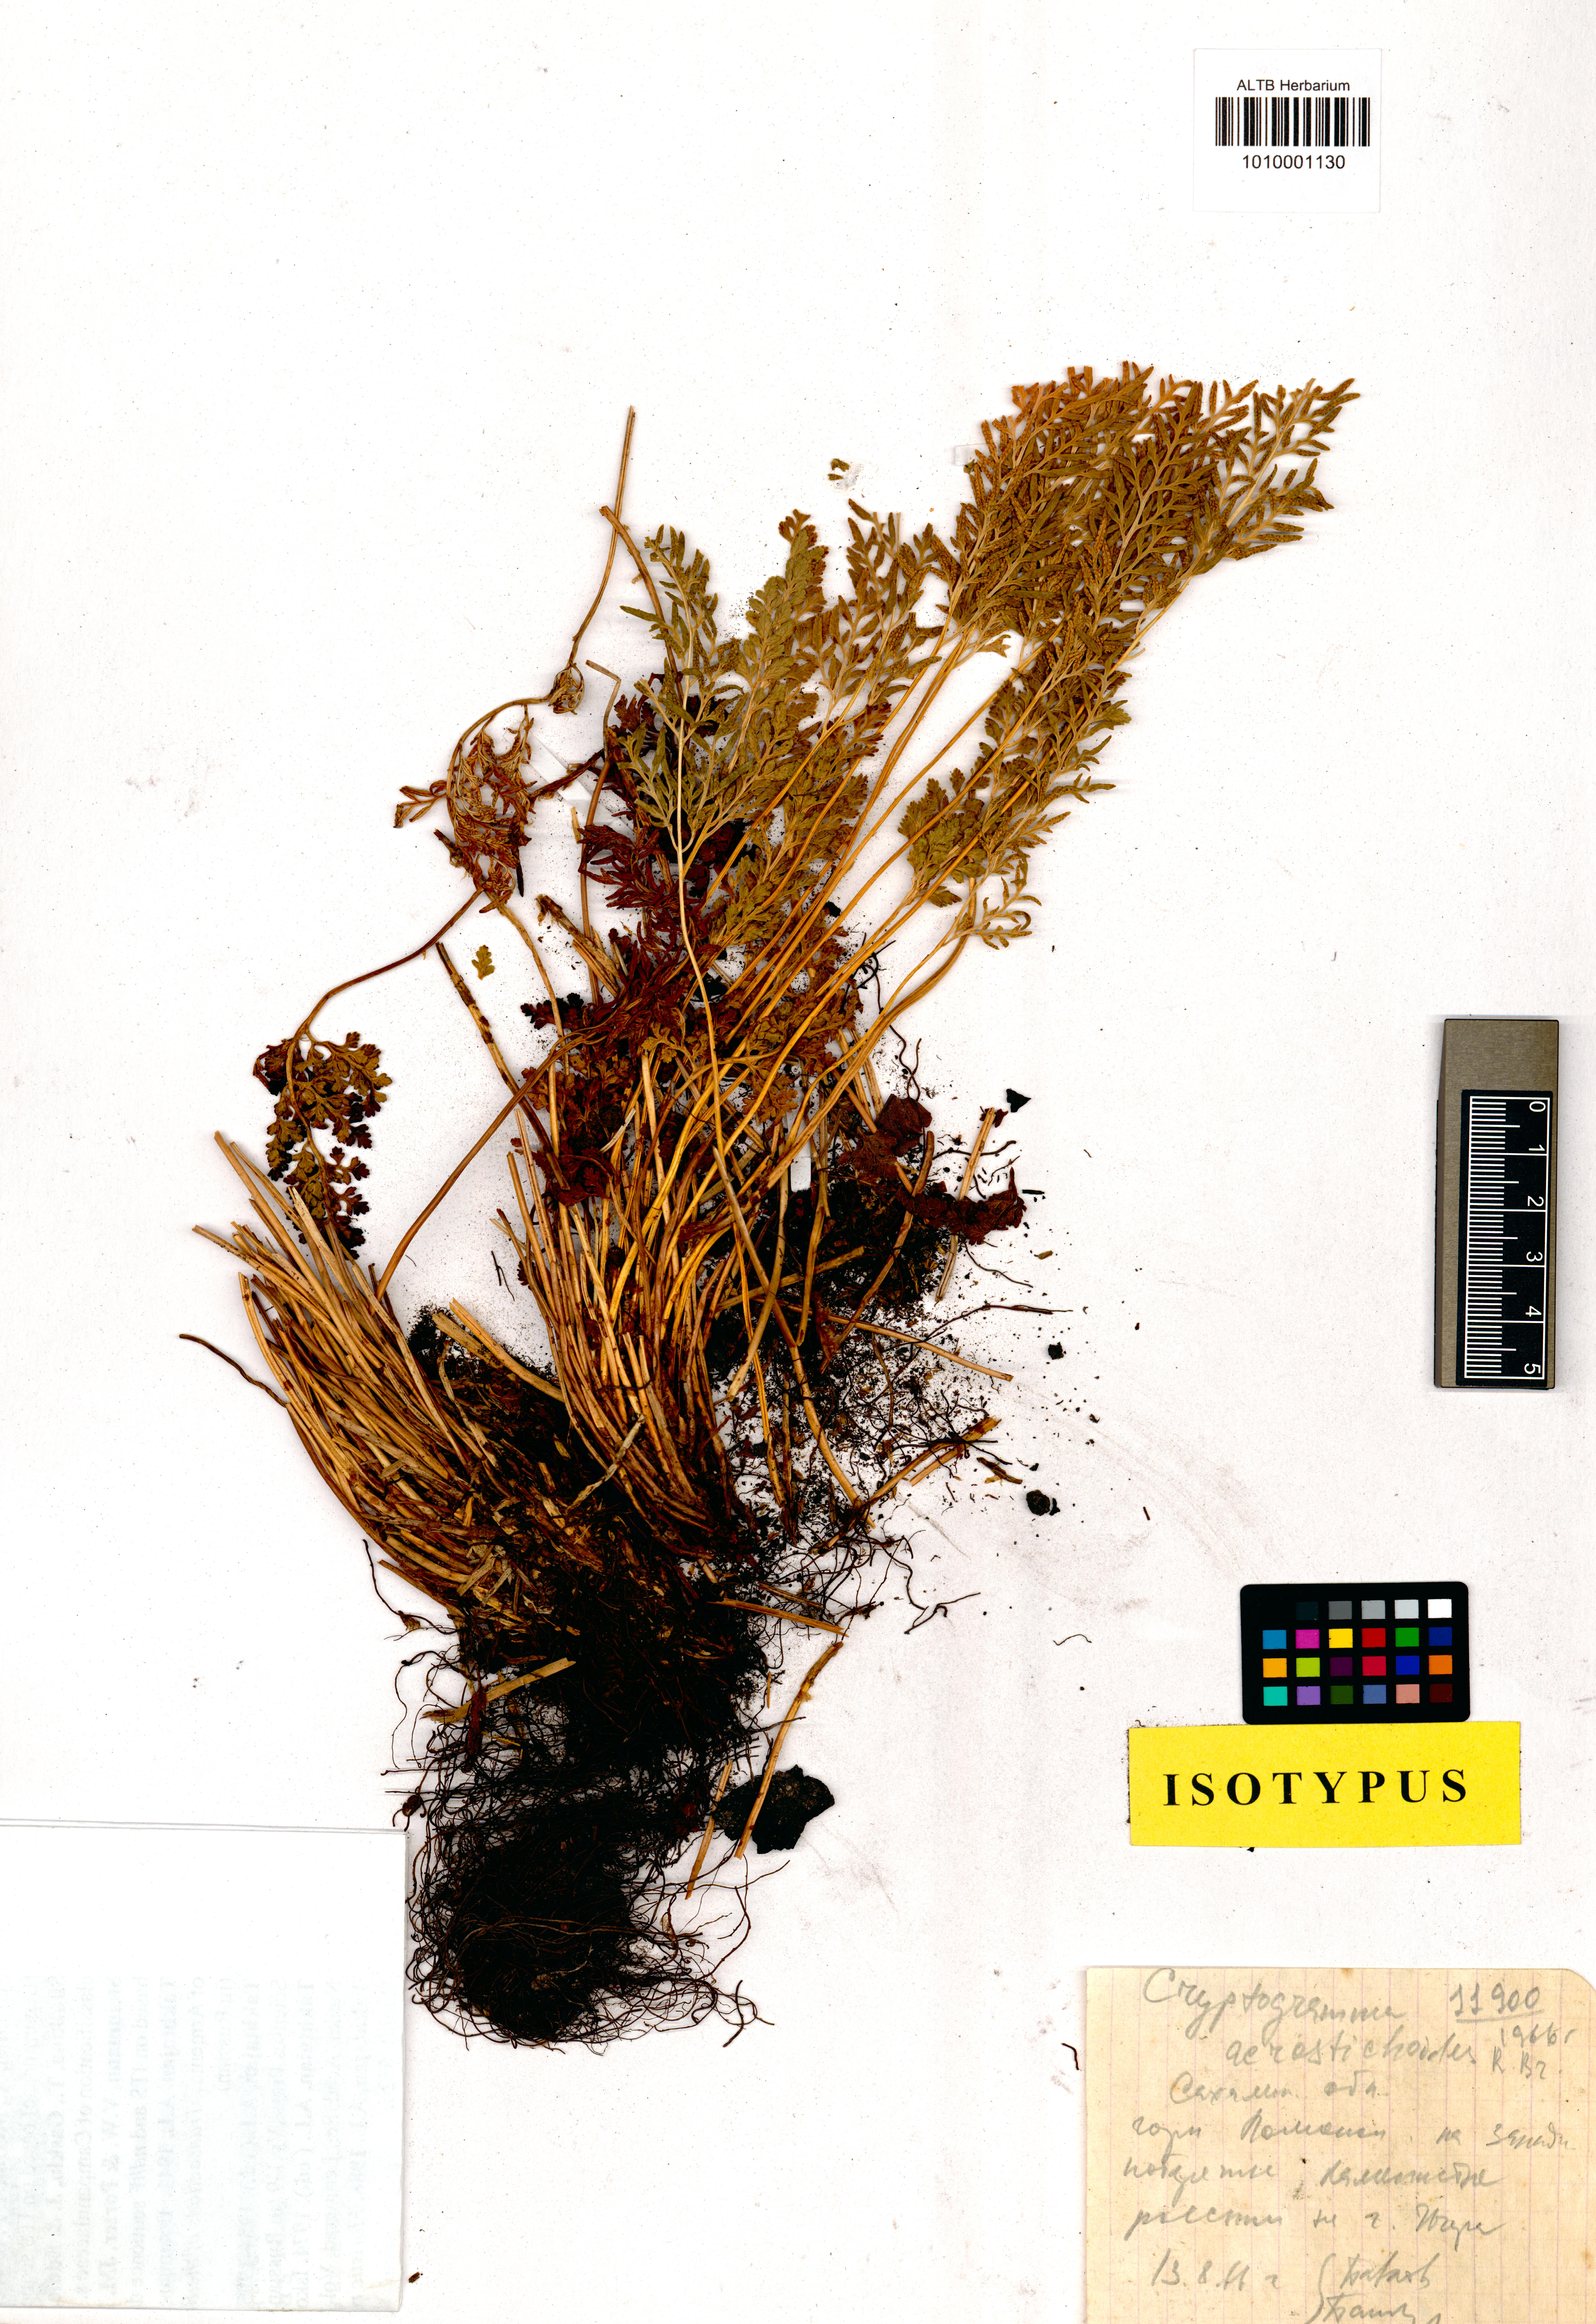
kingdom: Plantae
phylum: Tracheophyta
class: Polypodiopsida
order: Polypodiales
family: Pteridaceae
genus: Cryptogramma
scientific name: Cryptogramma gorovoii
